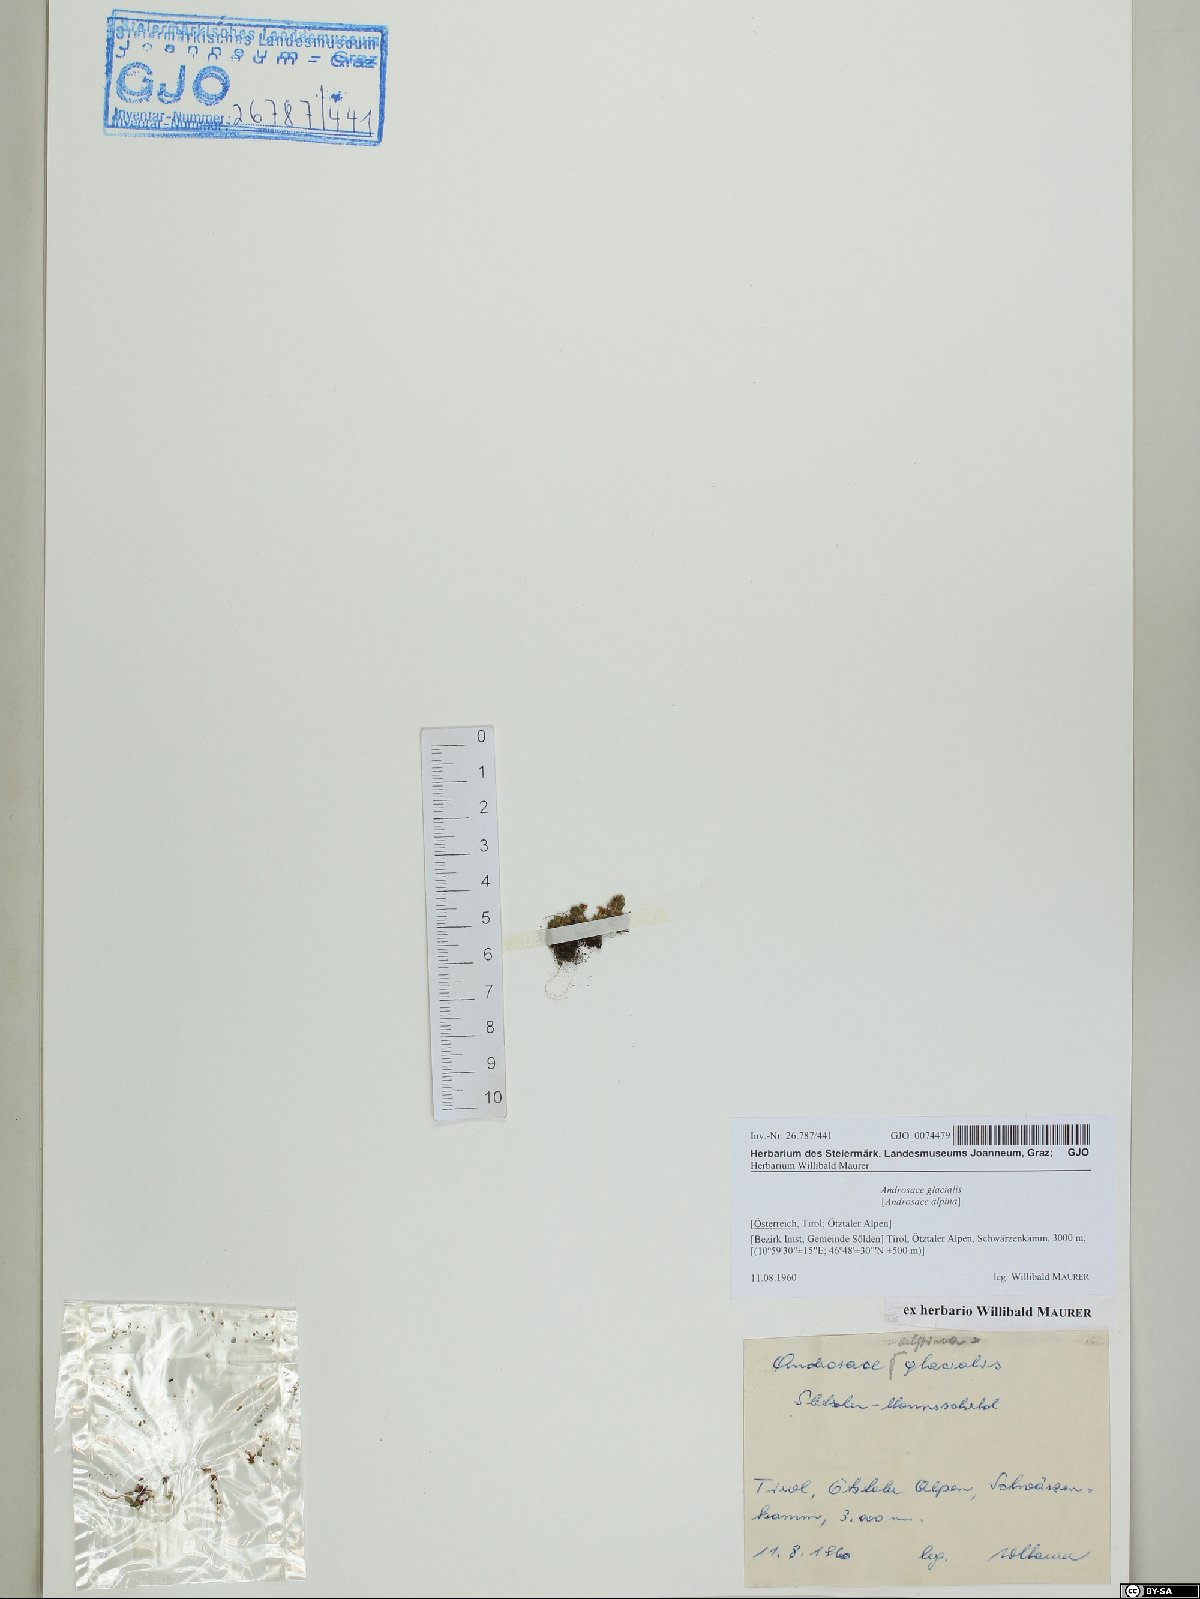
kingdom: Plantae
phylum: Tracheophyta
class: Magnoliopsida
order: Ericales
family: Primulaceae
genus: Androsace
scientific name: Androsace alpina
